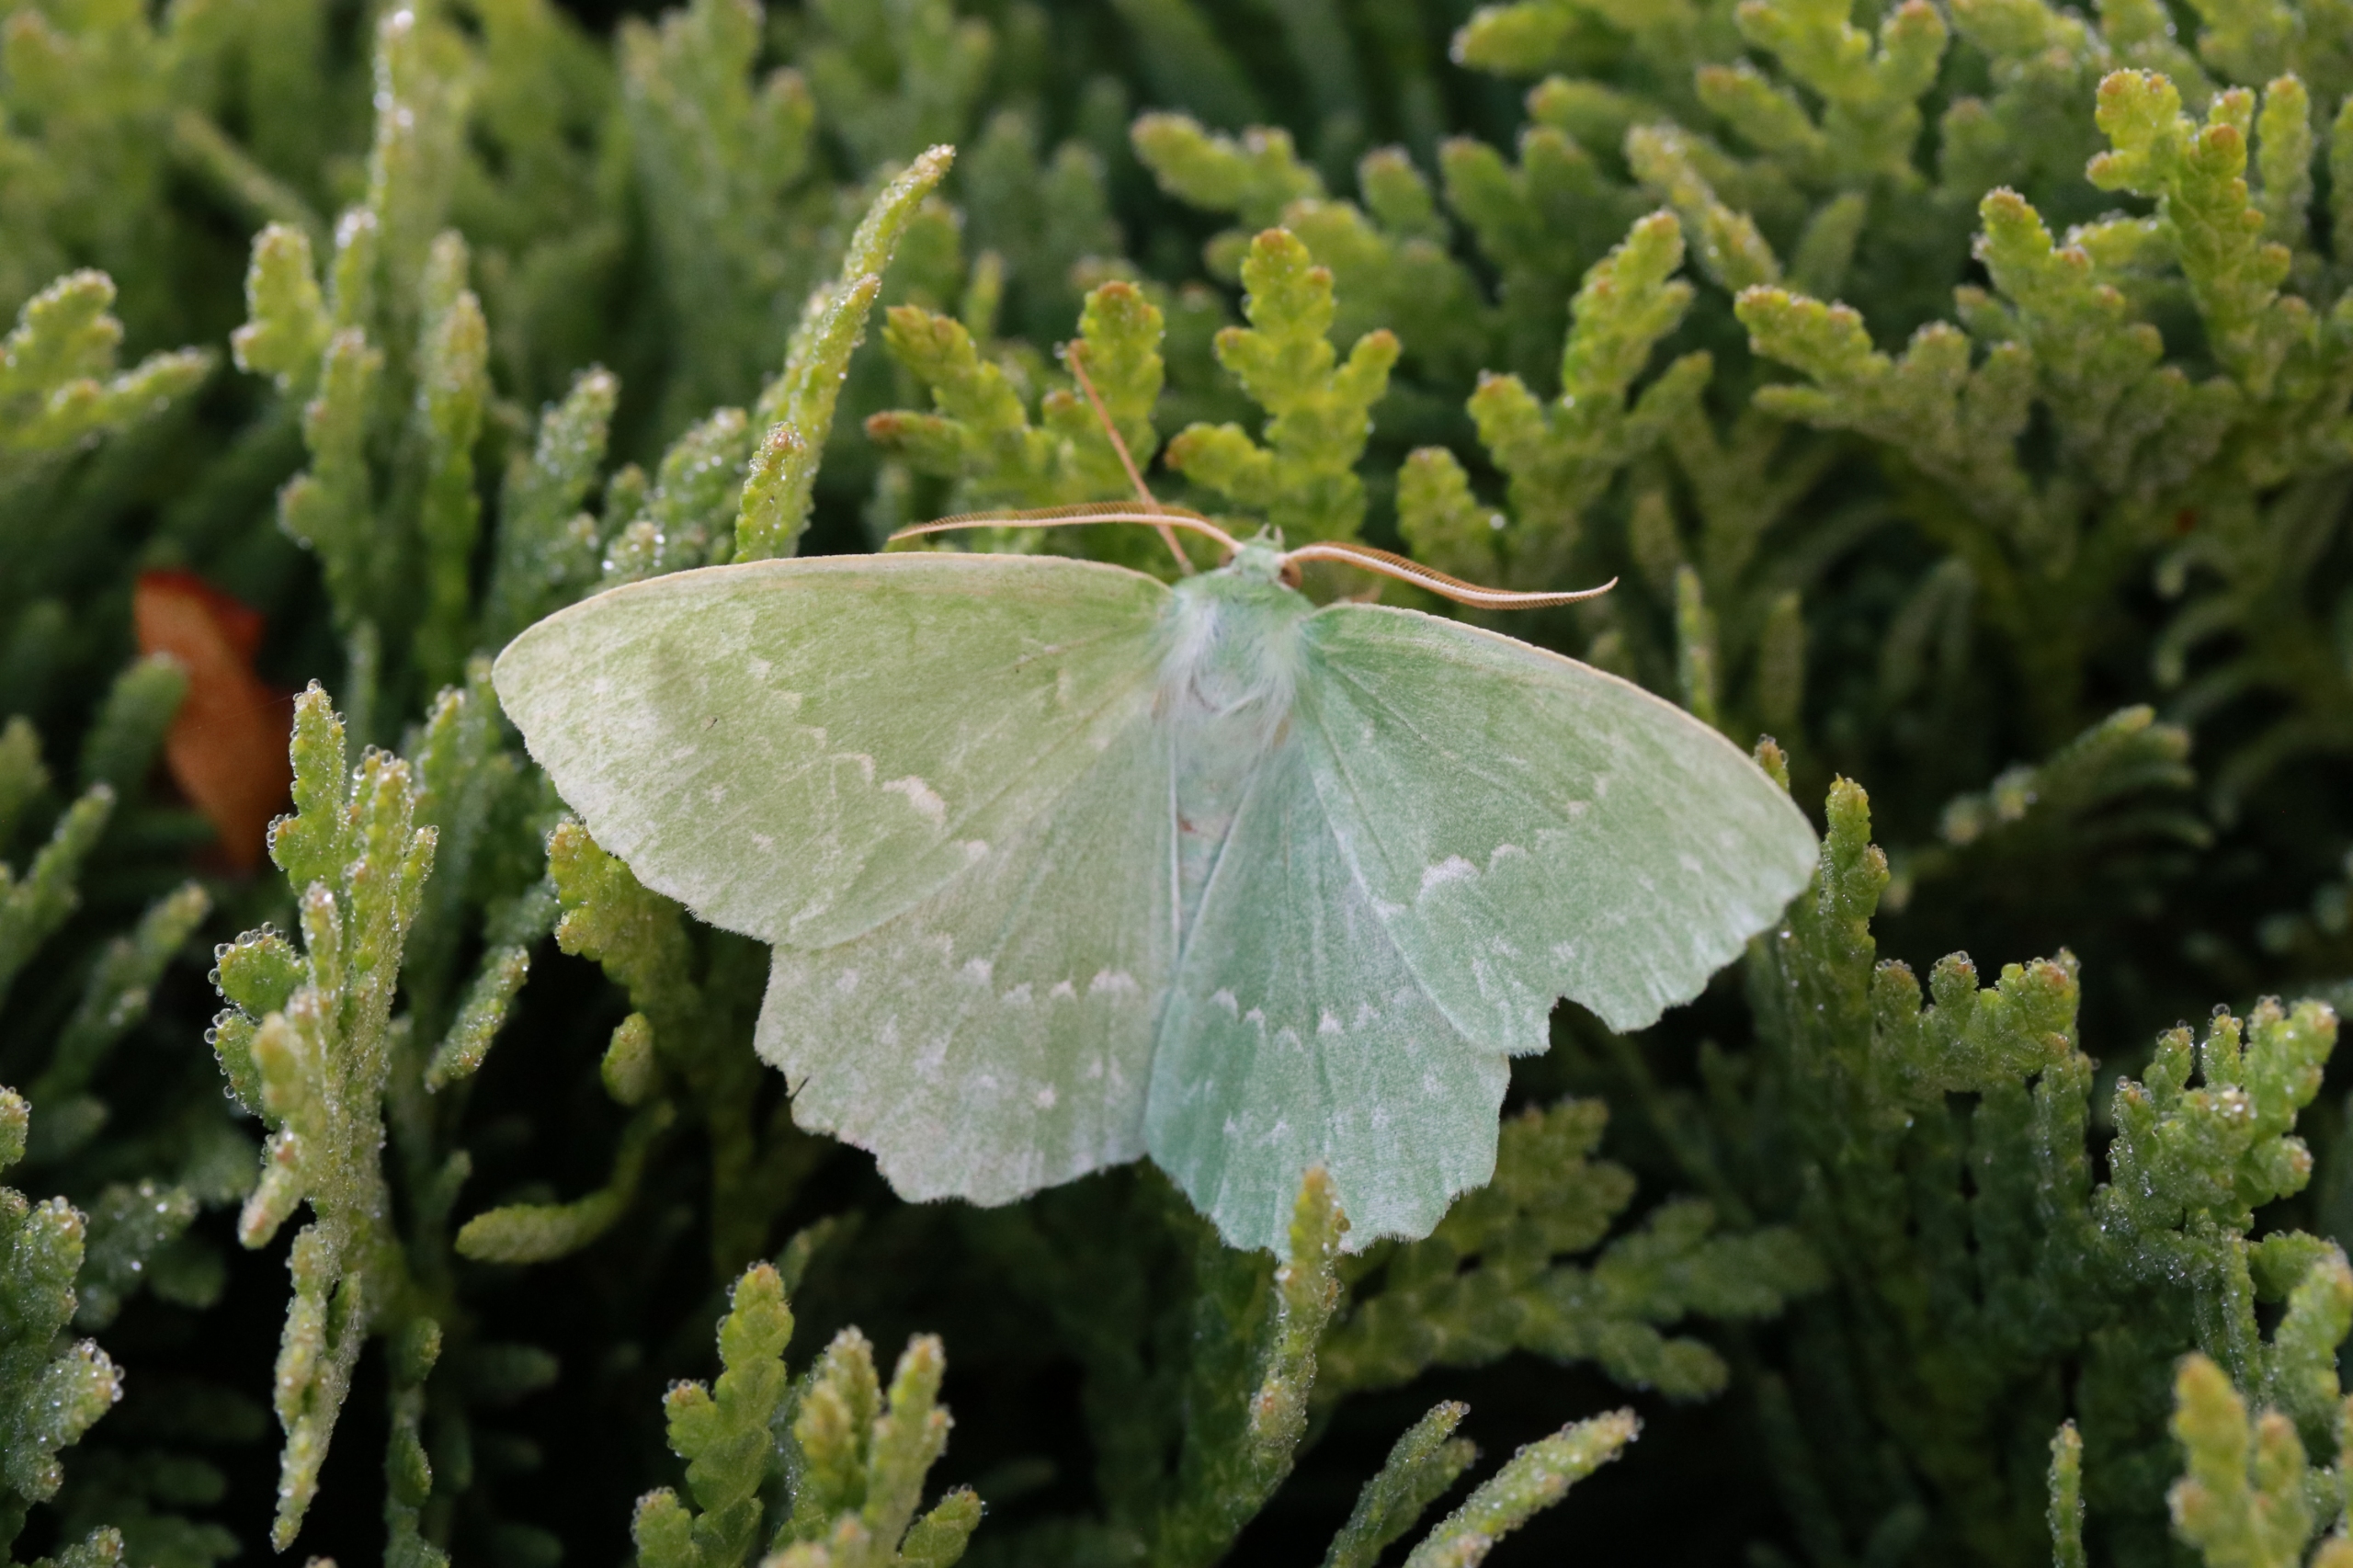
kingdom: Animalia
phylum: Arthropoda
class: Insecta
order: Lepidoptera
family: Geometridae
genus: Geometra
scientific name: Geometra papilionaria
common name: Grøn birkemåler
